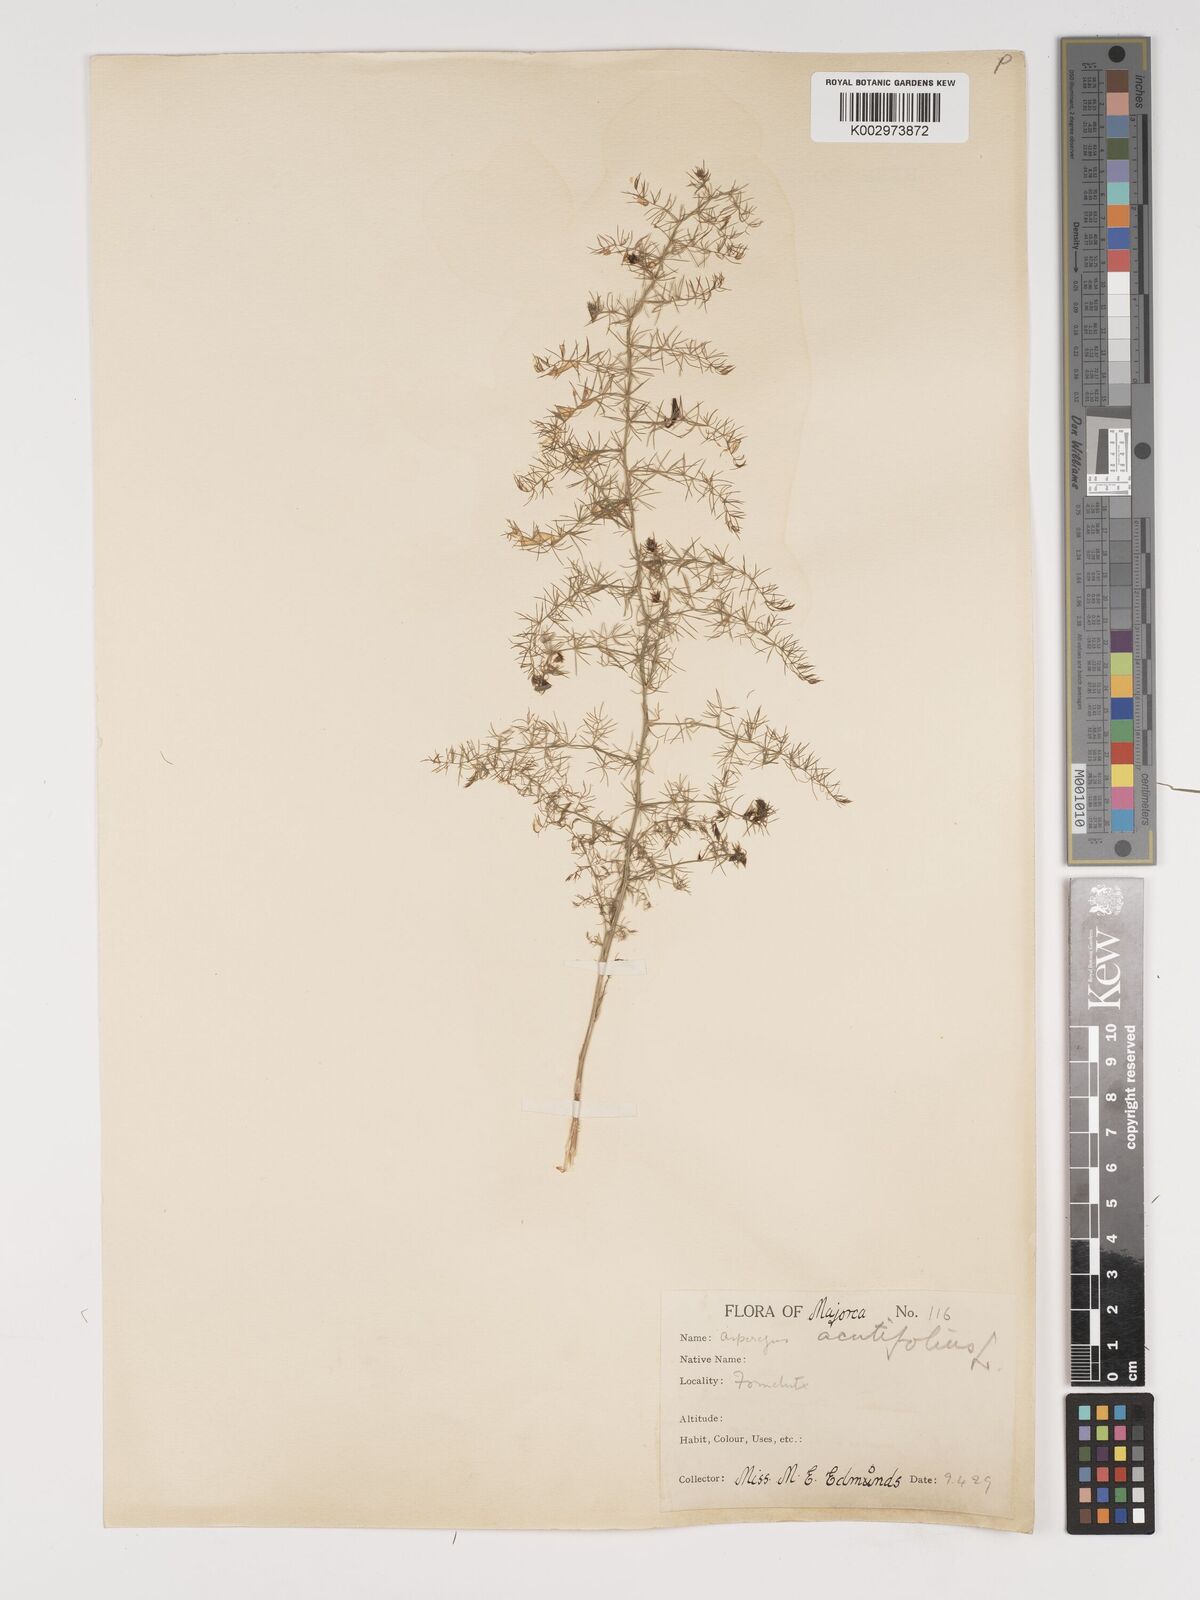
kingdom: Plantae
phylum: Tracheophyta
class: Liliopsida
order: Asparagales
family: Asparagaceae
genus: Asparagus
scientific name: Asparagus acutifolius
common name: Wild asparagus
